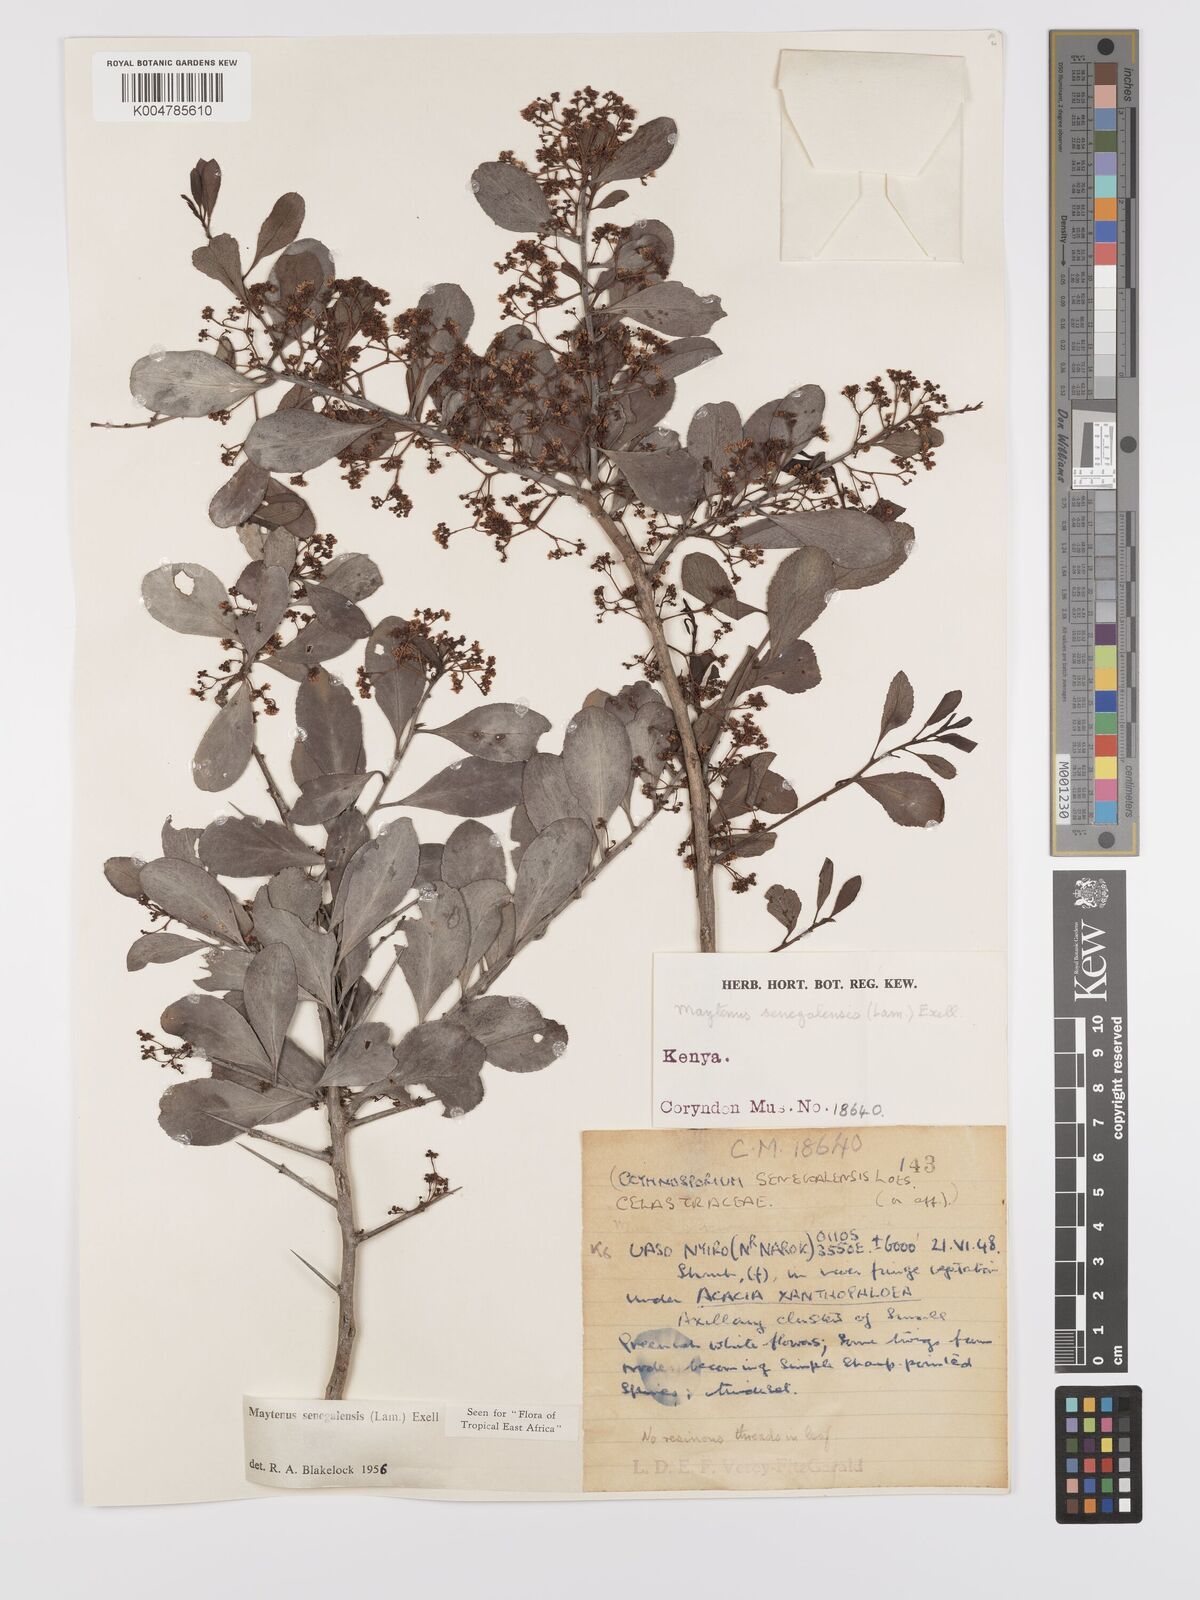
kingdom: Plantae
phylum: Tracheophyta
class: Magnoliopsida
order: Celastrales
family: Celastraceae
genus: Gymnosporia
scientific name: Gymnosporia senegalensis
